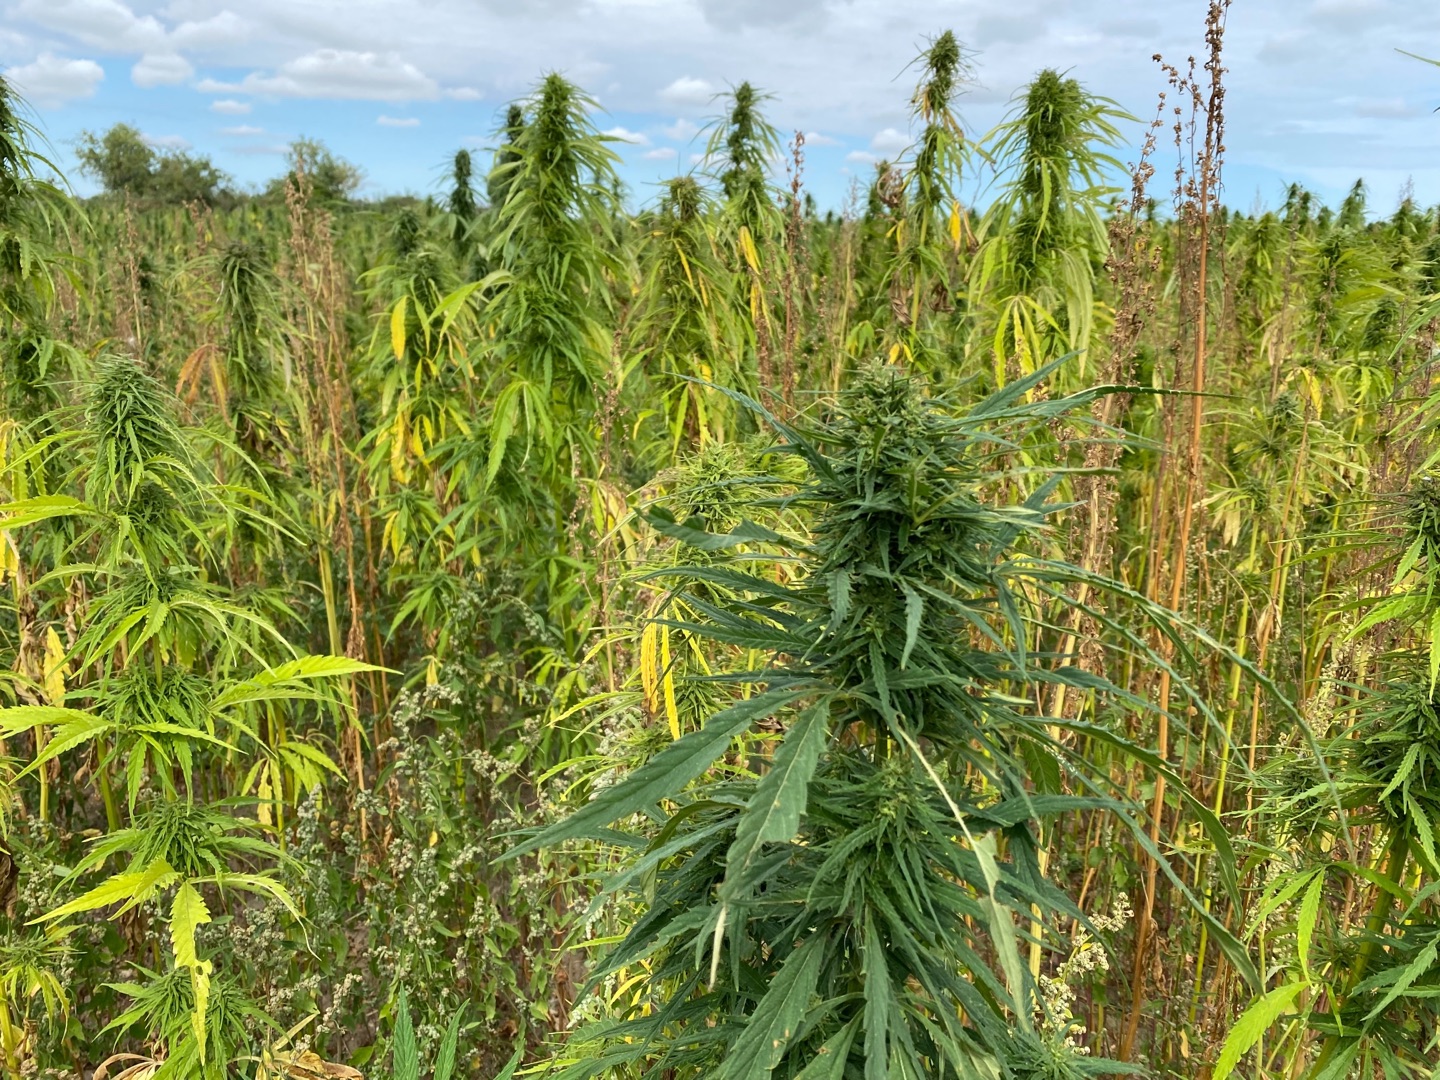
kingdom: Plantae
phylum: Tracheophyta
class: Magnoliopsida
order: Rosales
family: Cannabaceae
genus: Cannabis
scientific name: Cannabis sativa
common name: Hamp
